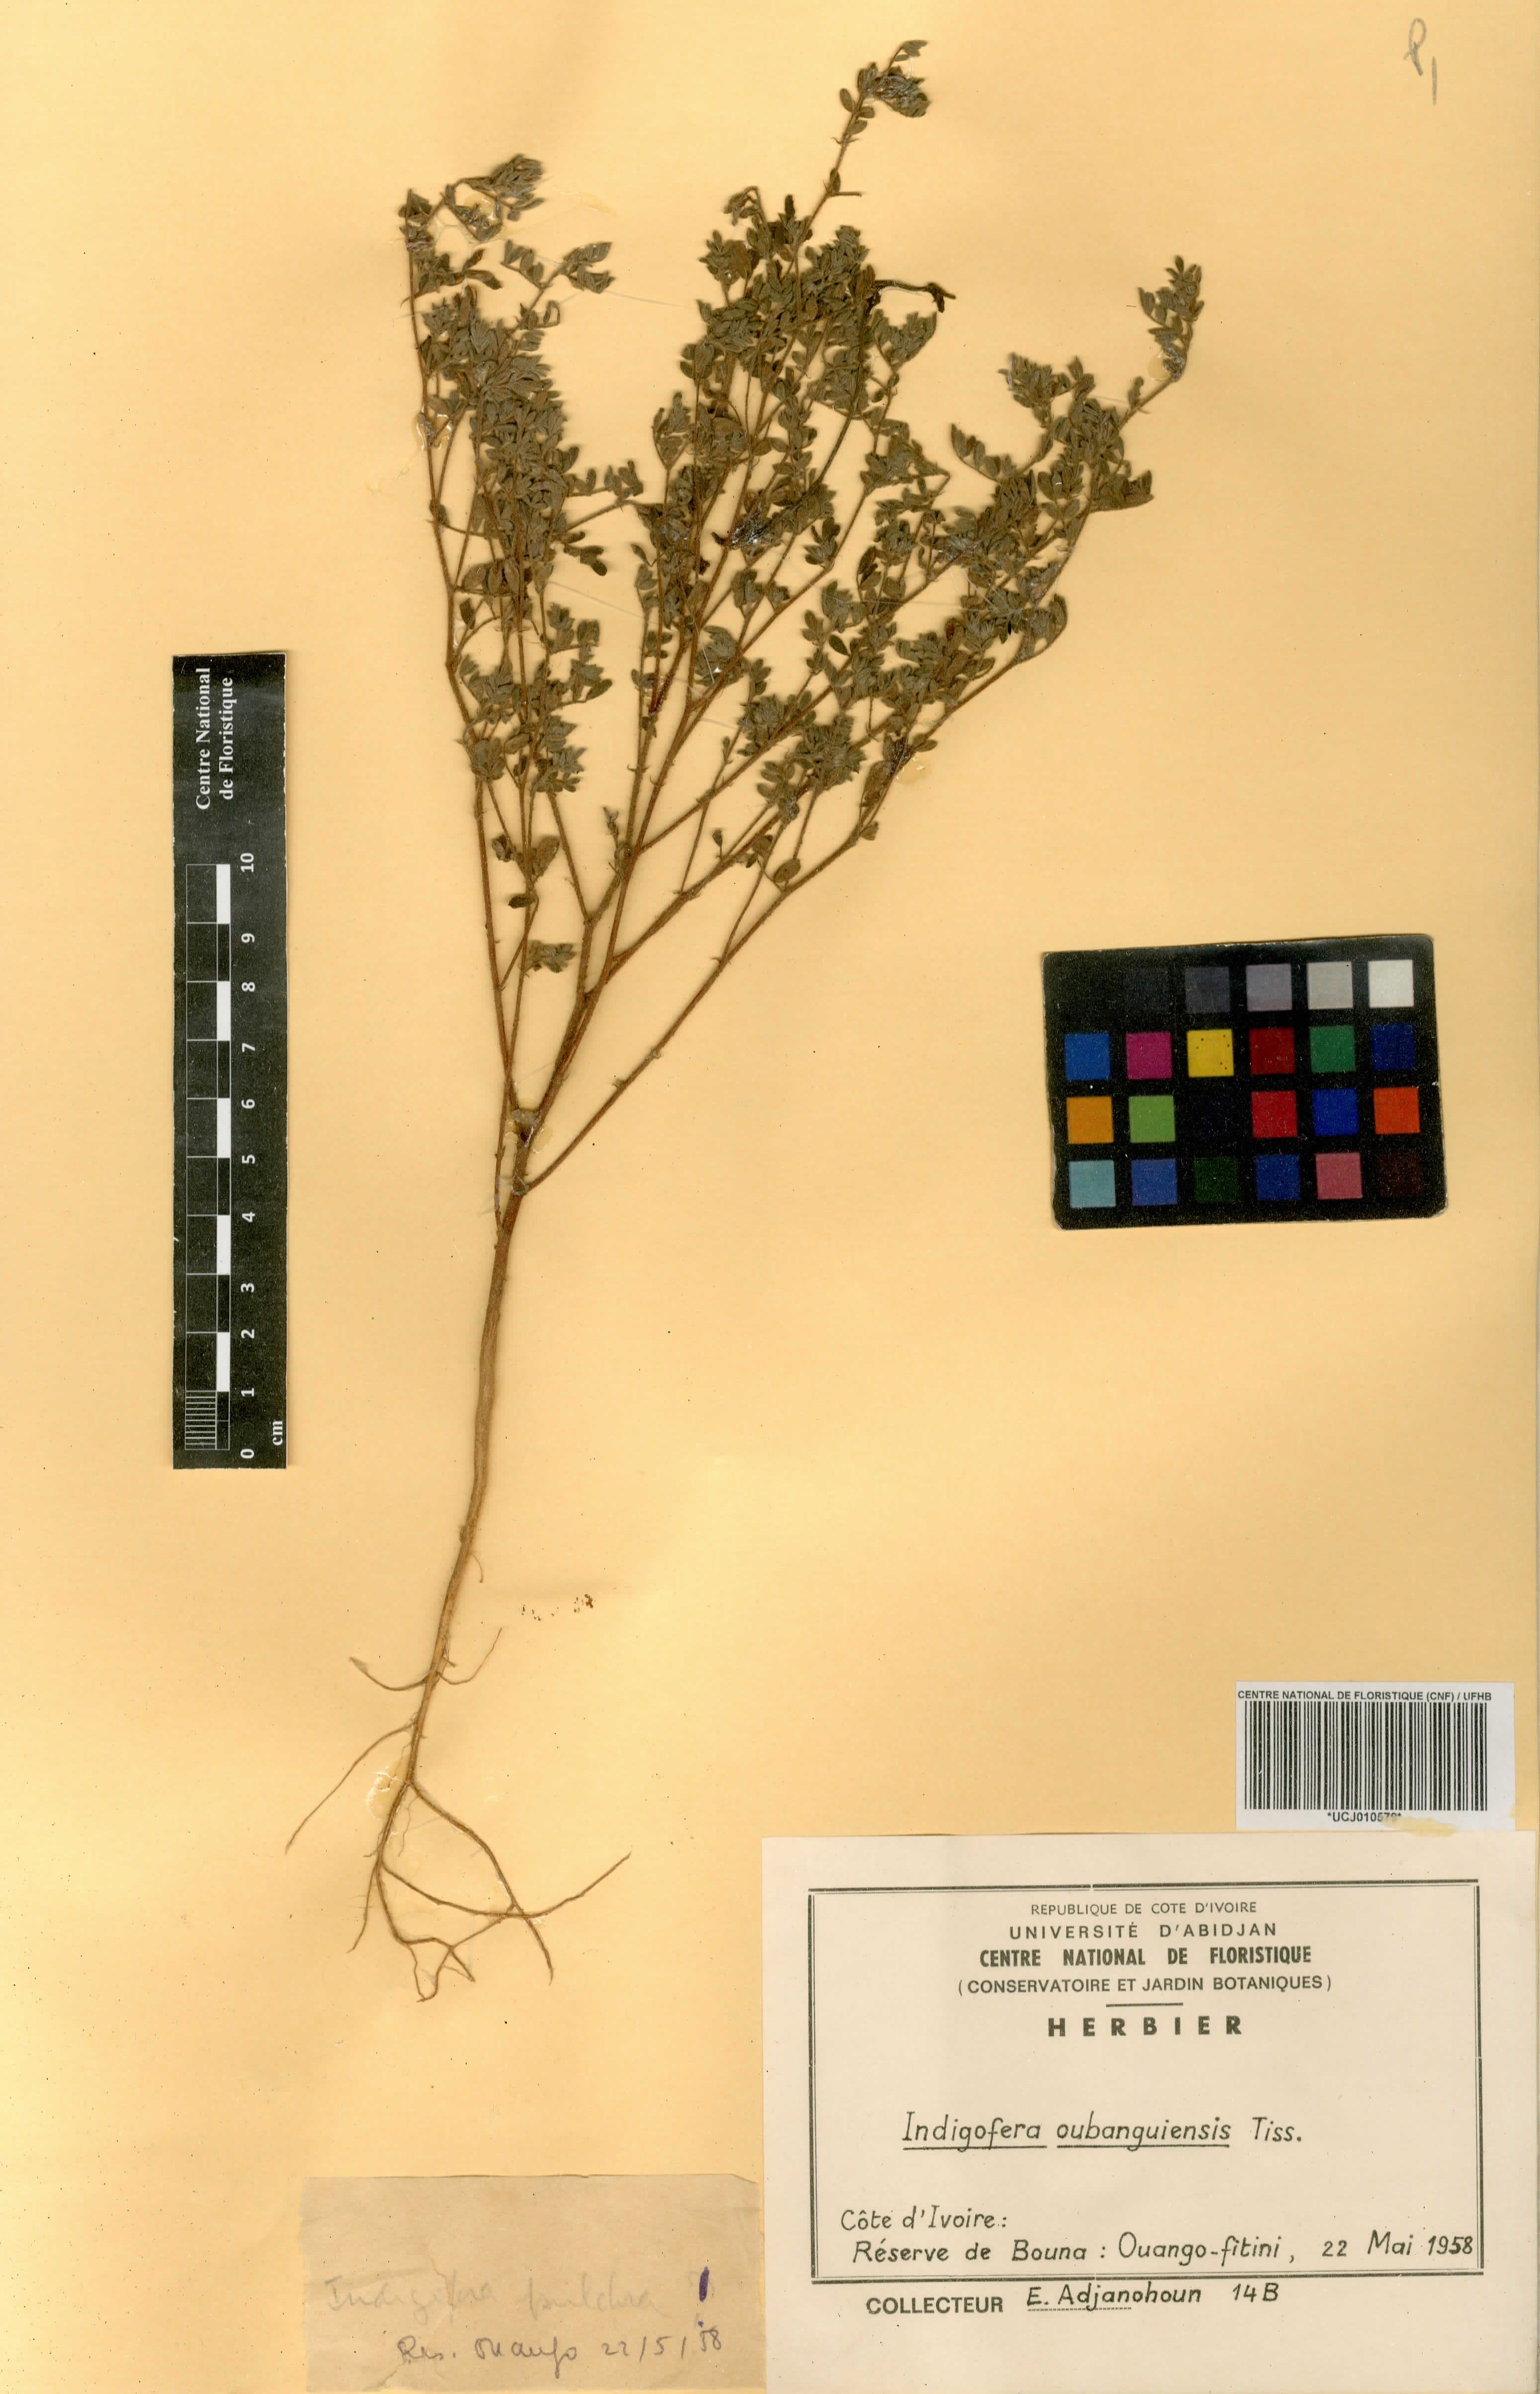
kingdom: Plantae
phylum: Tracheophyta
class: Magnoliopsida
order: Fabales
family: Fabaceae
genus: Indigofera
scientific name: Indigofera oubanguiensis
